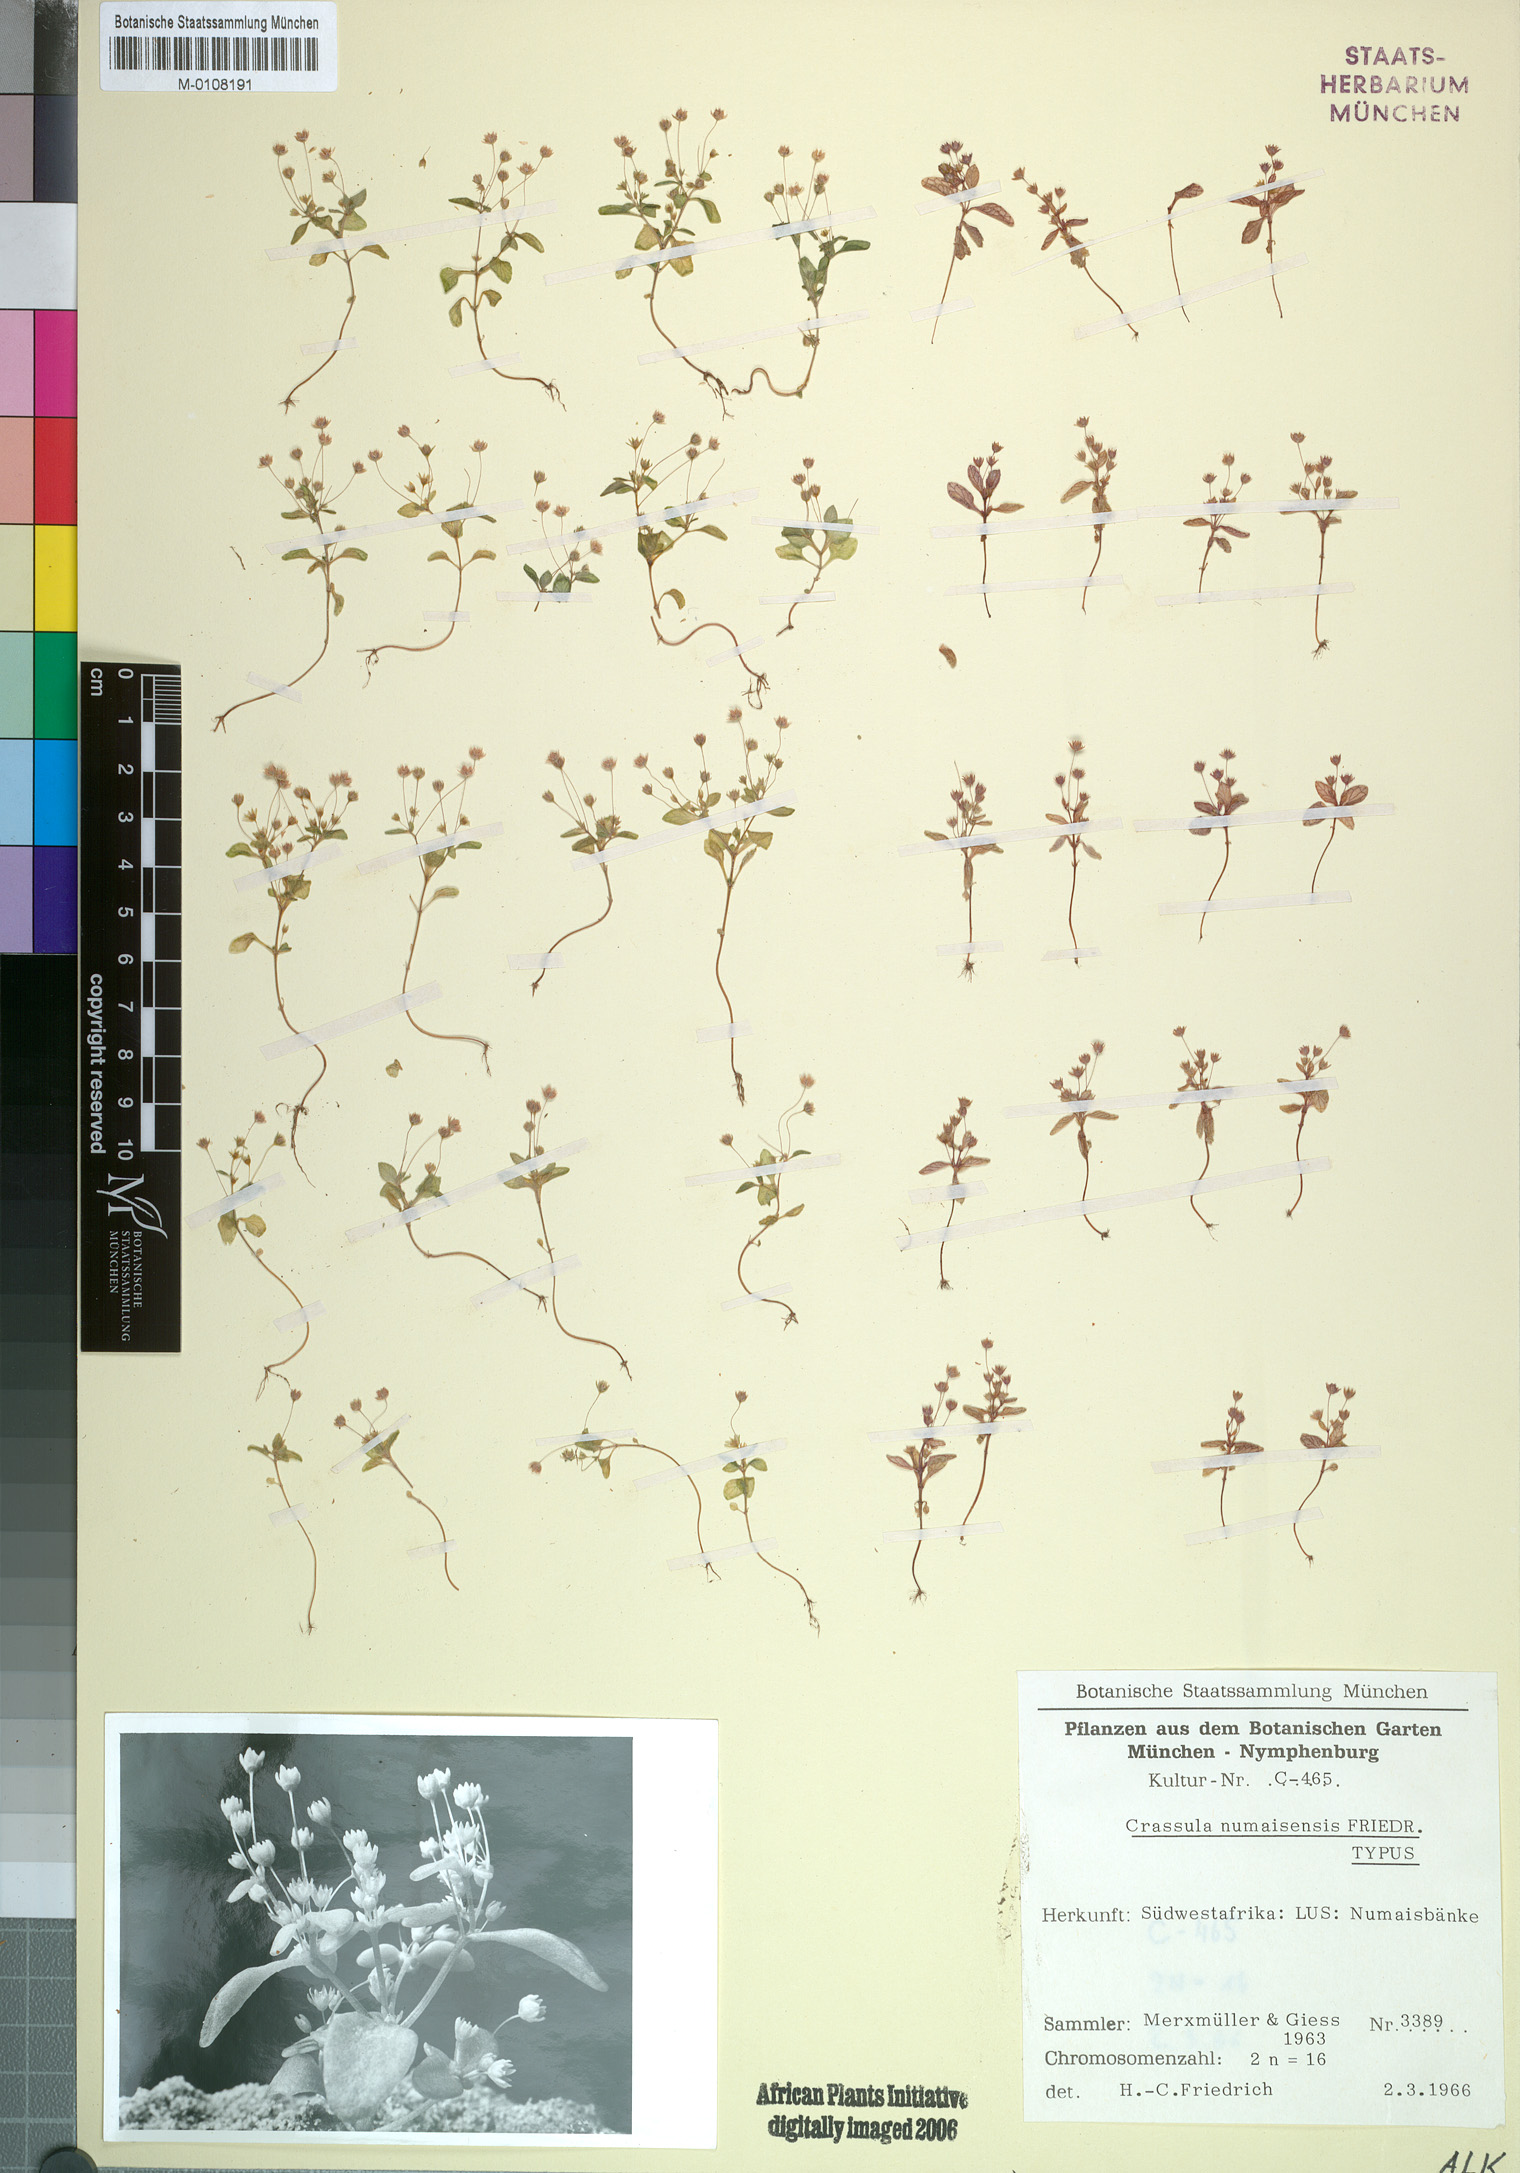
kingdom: Plantae
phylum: Tracheophyta
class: Magnoliopsida
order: Saxifragales
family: Crassulaceae
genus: Crassula
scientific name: Crassula numaisensis
